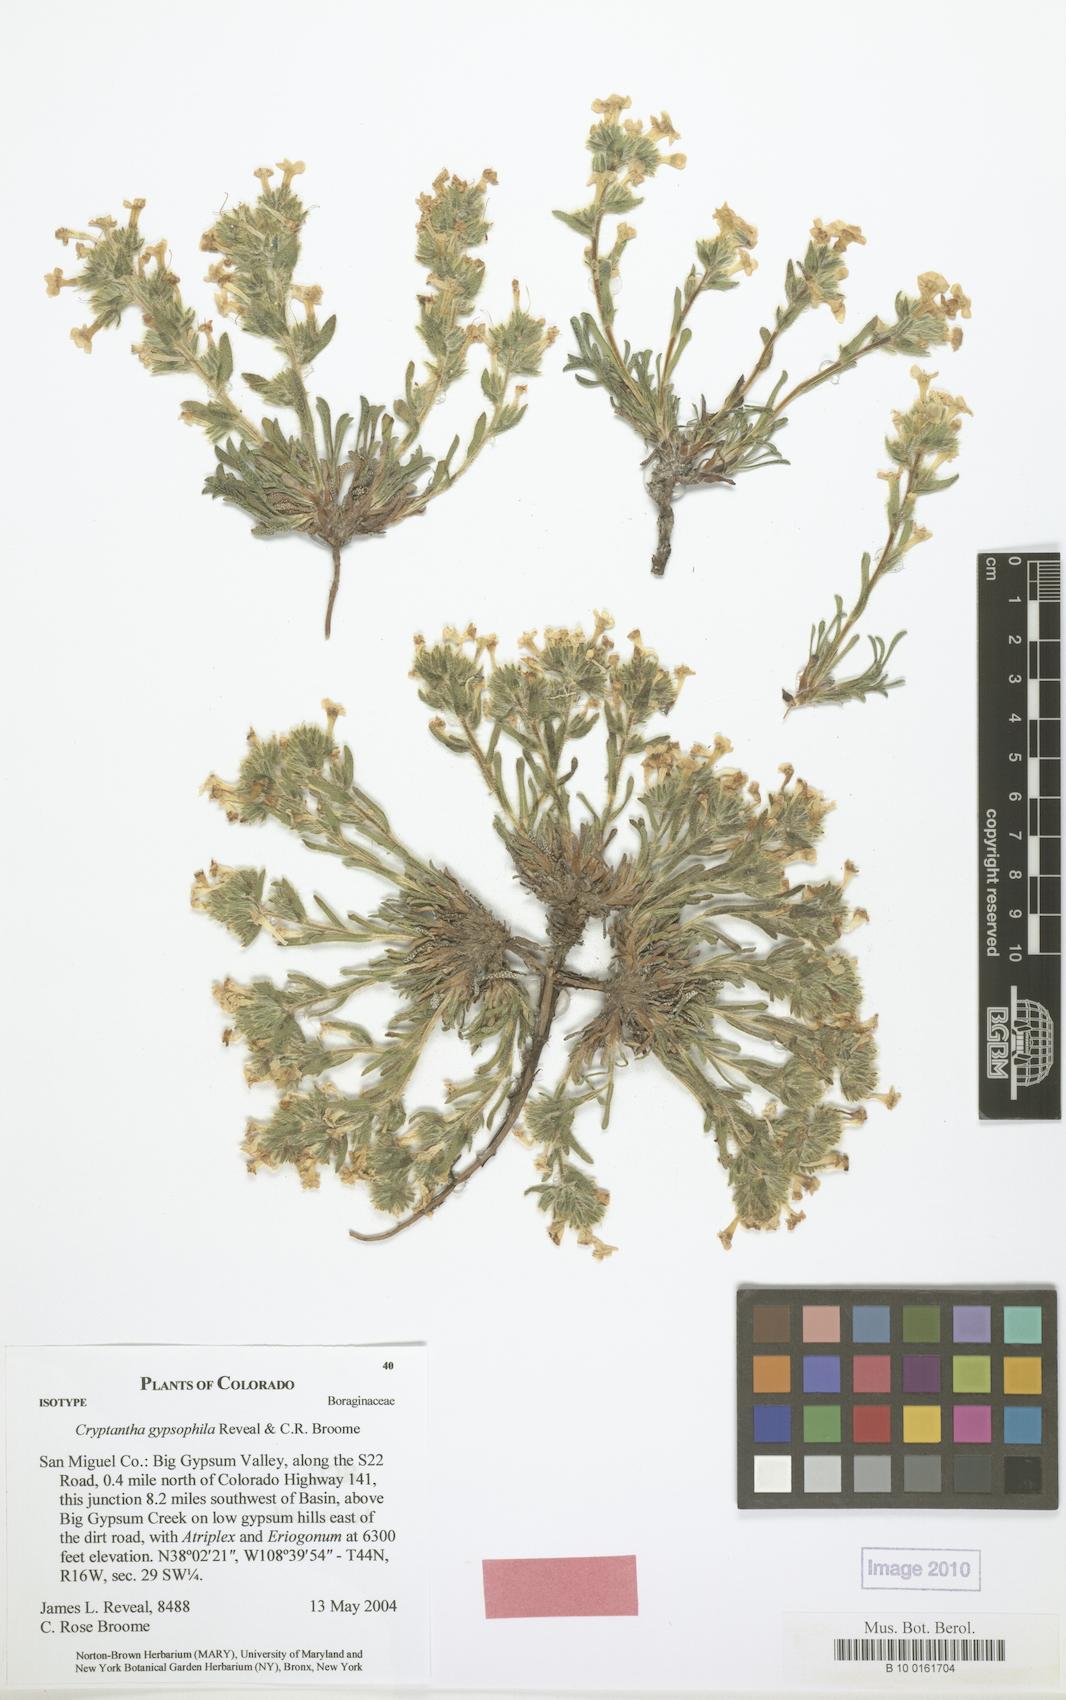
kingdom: Plantae
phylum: Tracheophyta
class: Magnoliopsida
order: Boraginales
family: Boraginaceae
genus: Oreocarya
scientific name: Oreocarya revealii
